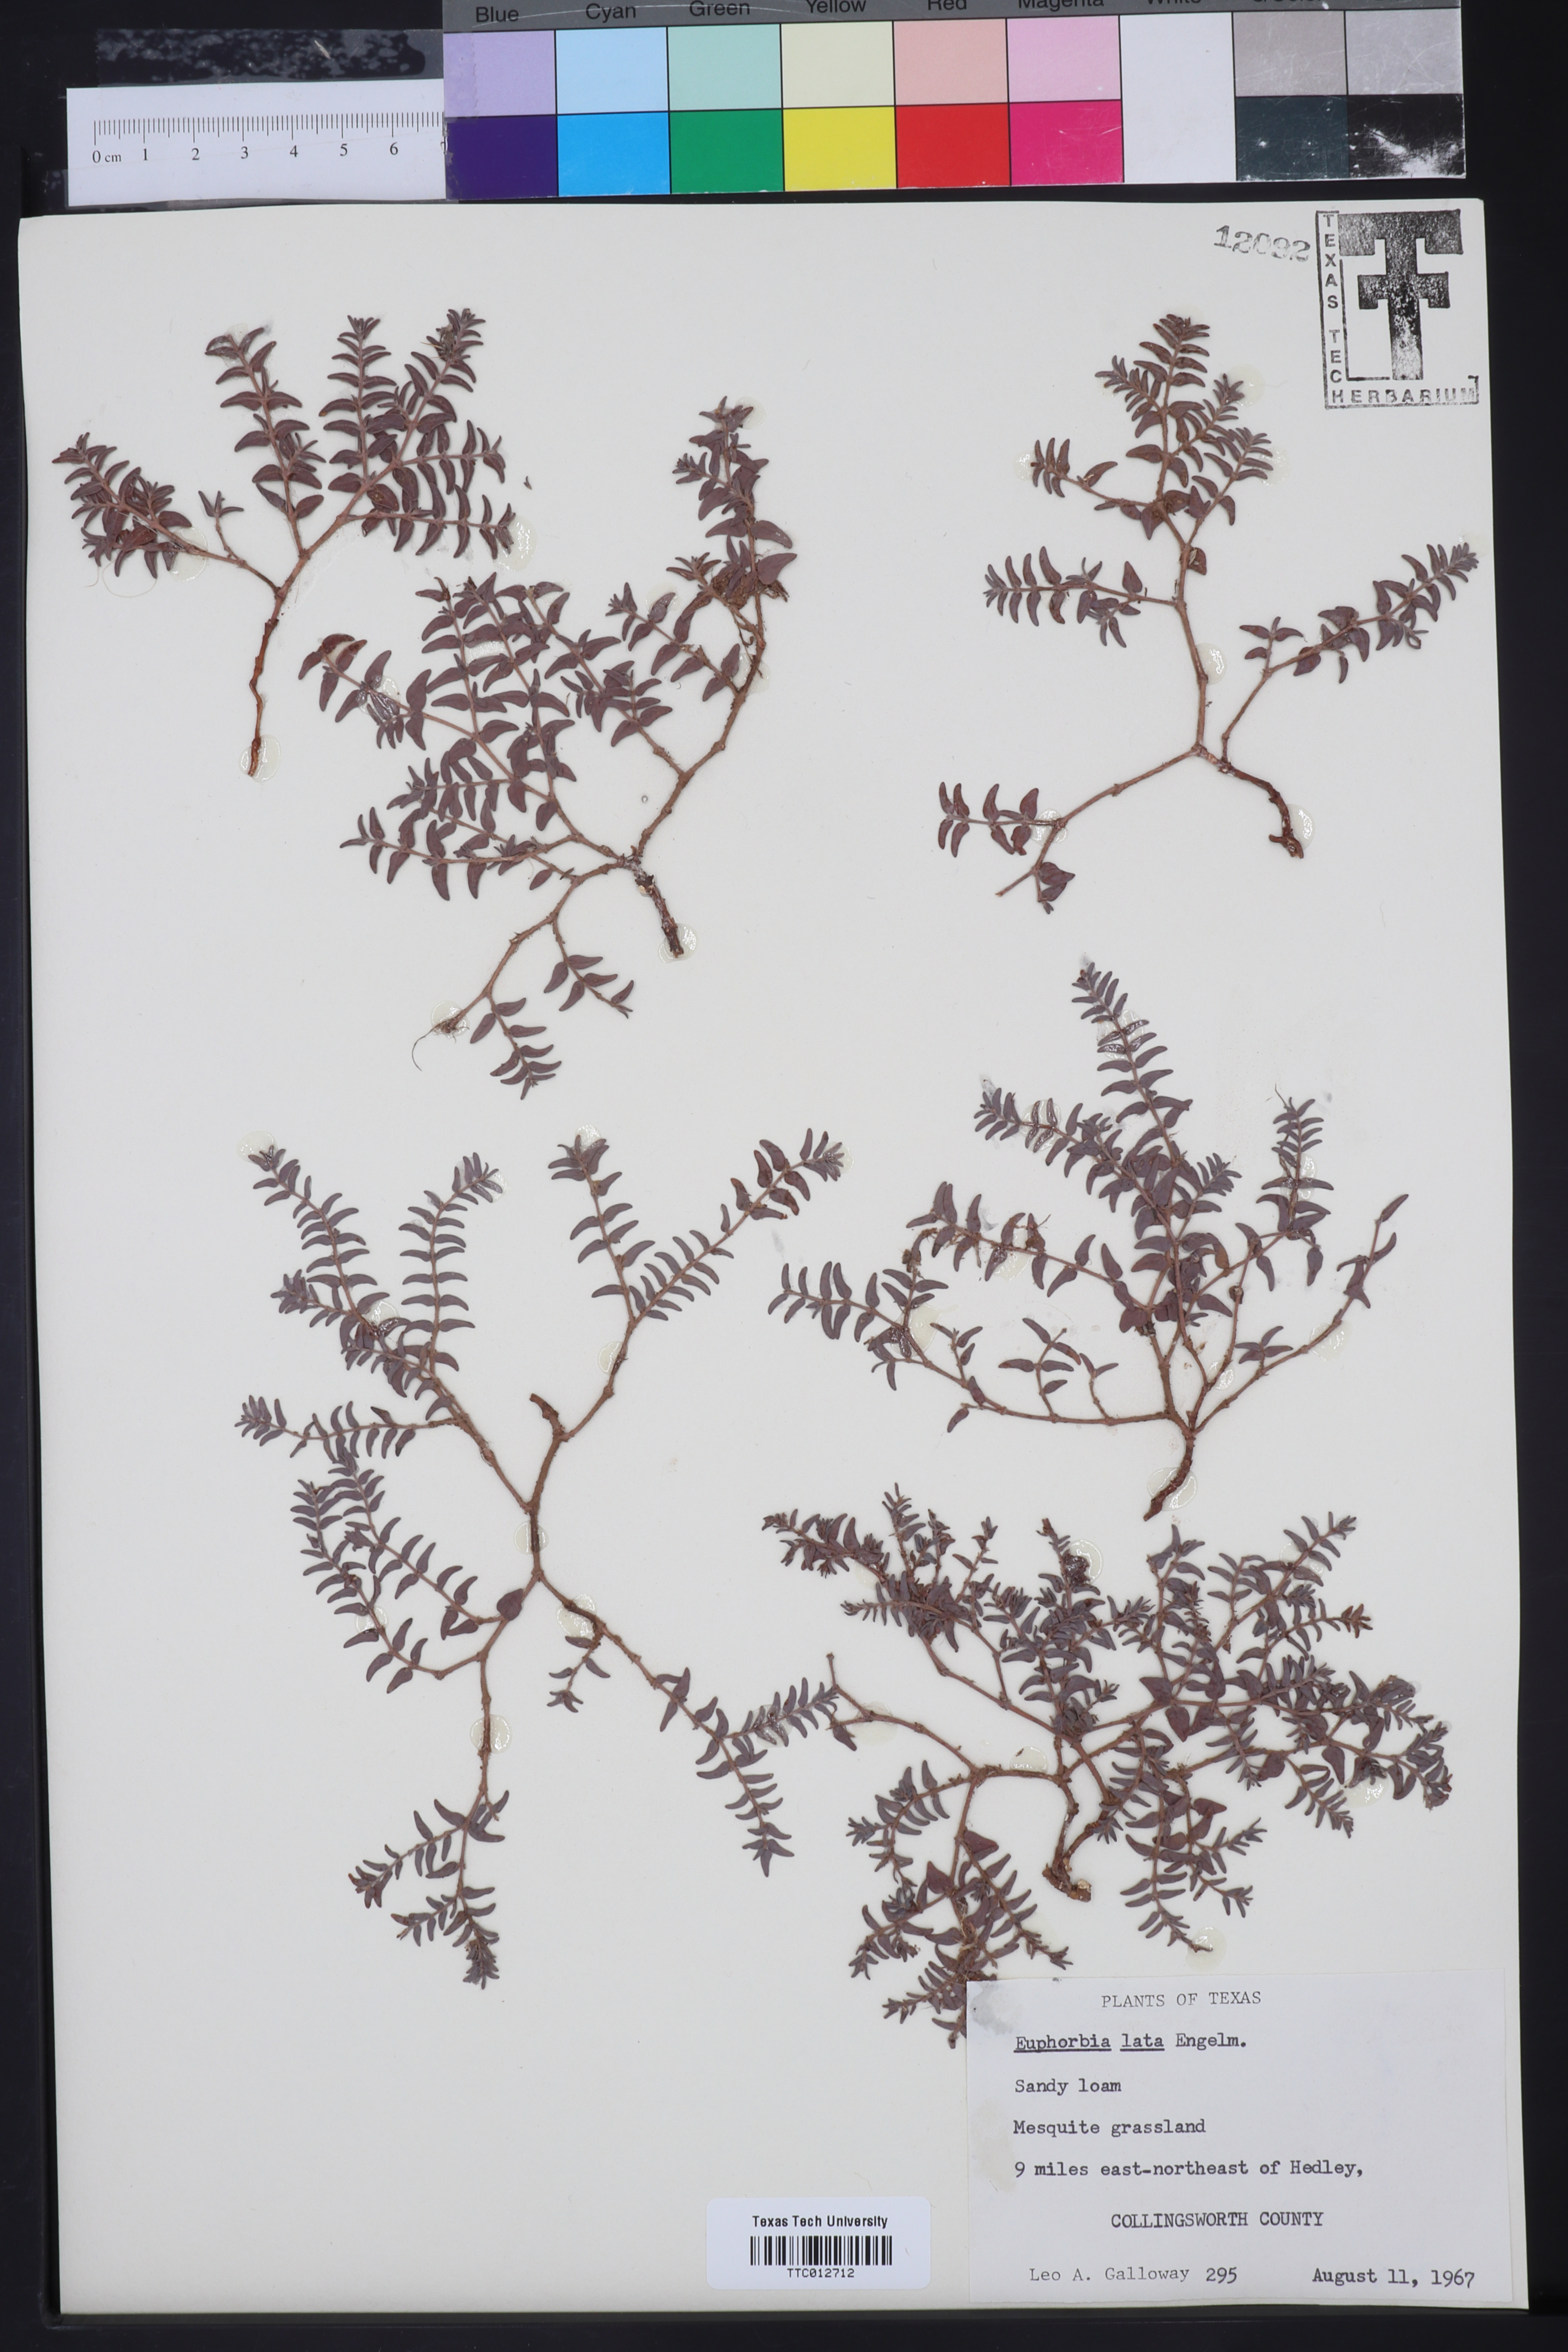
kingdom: Plantae
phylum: Tracheophyta
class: Magnoliopsida
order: Malpighiales
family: Euphorbiaceae
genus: Euphorbia
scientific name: Euphorbia lata
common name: Hoary euphorbia
